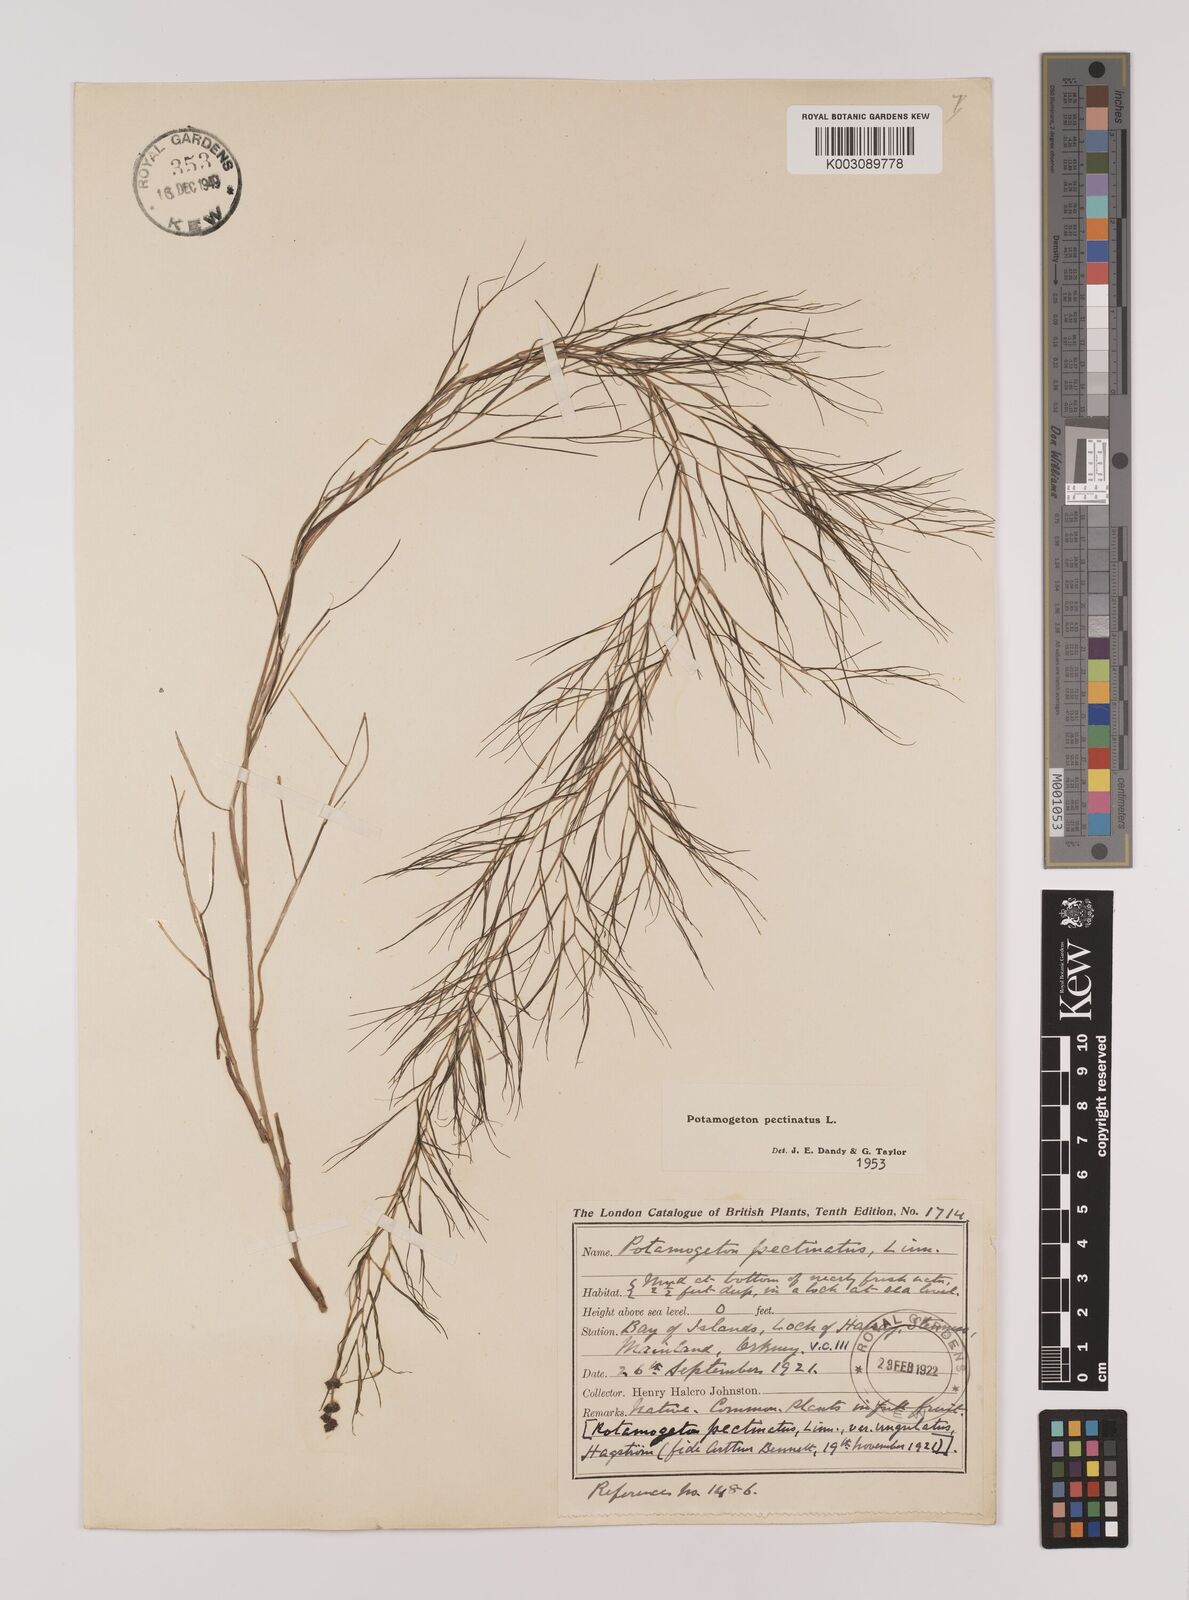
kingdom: Plantae
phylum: Tracheophyta
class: Liliopsida
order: Alismatales
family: Potamogetonaceae
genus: Stuckenia
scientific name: Stuckenia pectinata
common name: Sago pondweed
